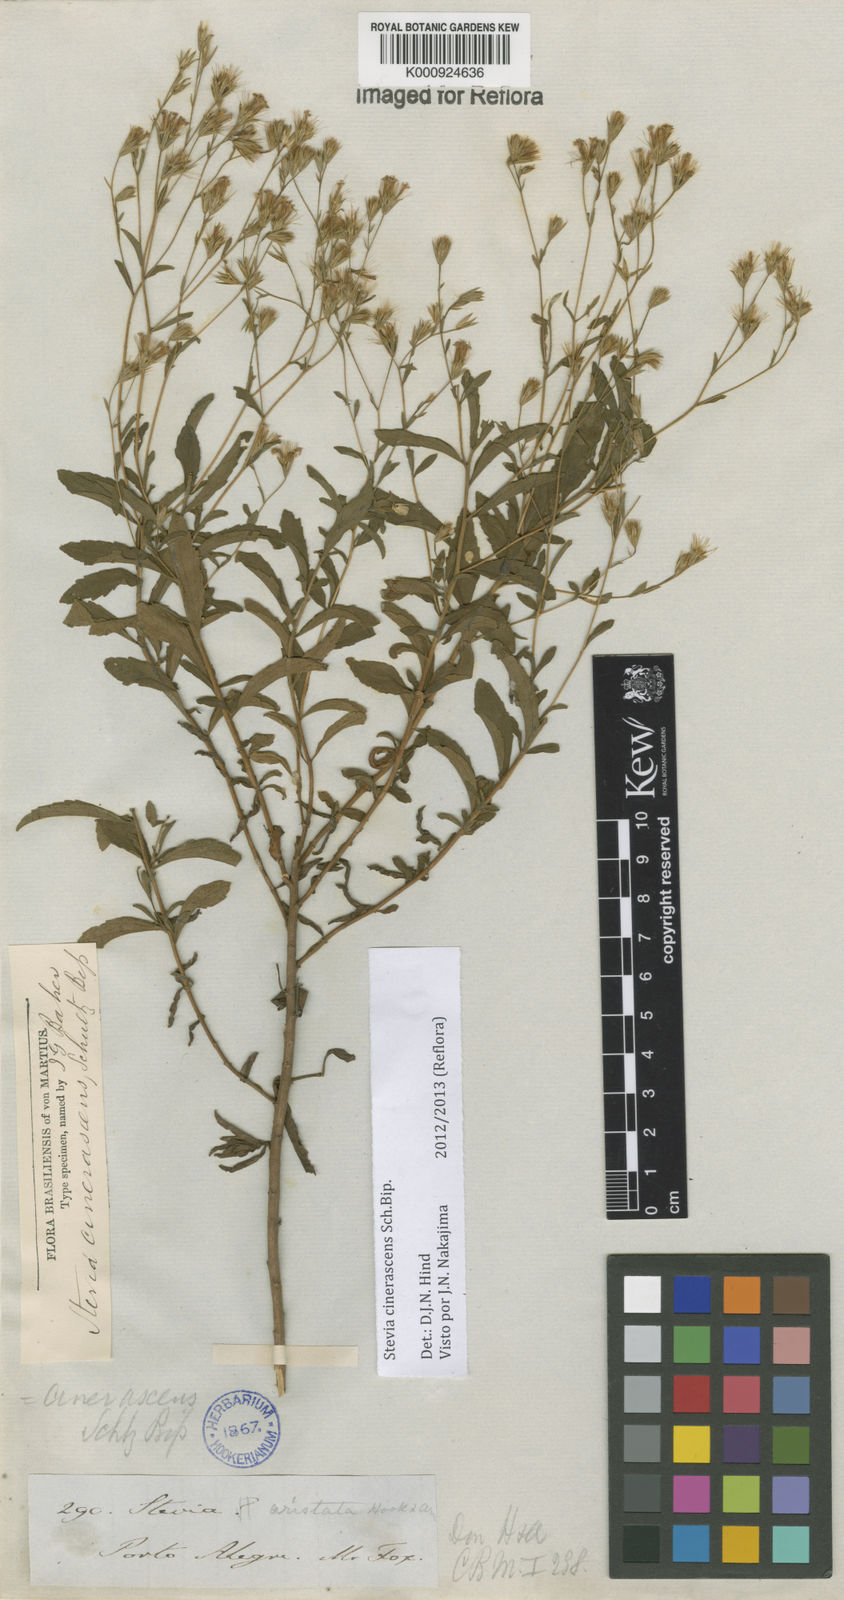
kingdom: Plantae
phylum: Tracheophyta
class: Magnoliopsida
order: Asterales
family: Asteraceae
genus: Stevia
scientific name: Stevia cinerascens
